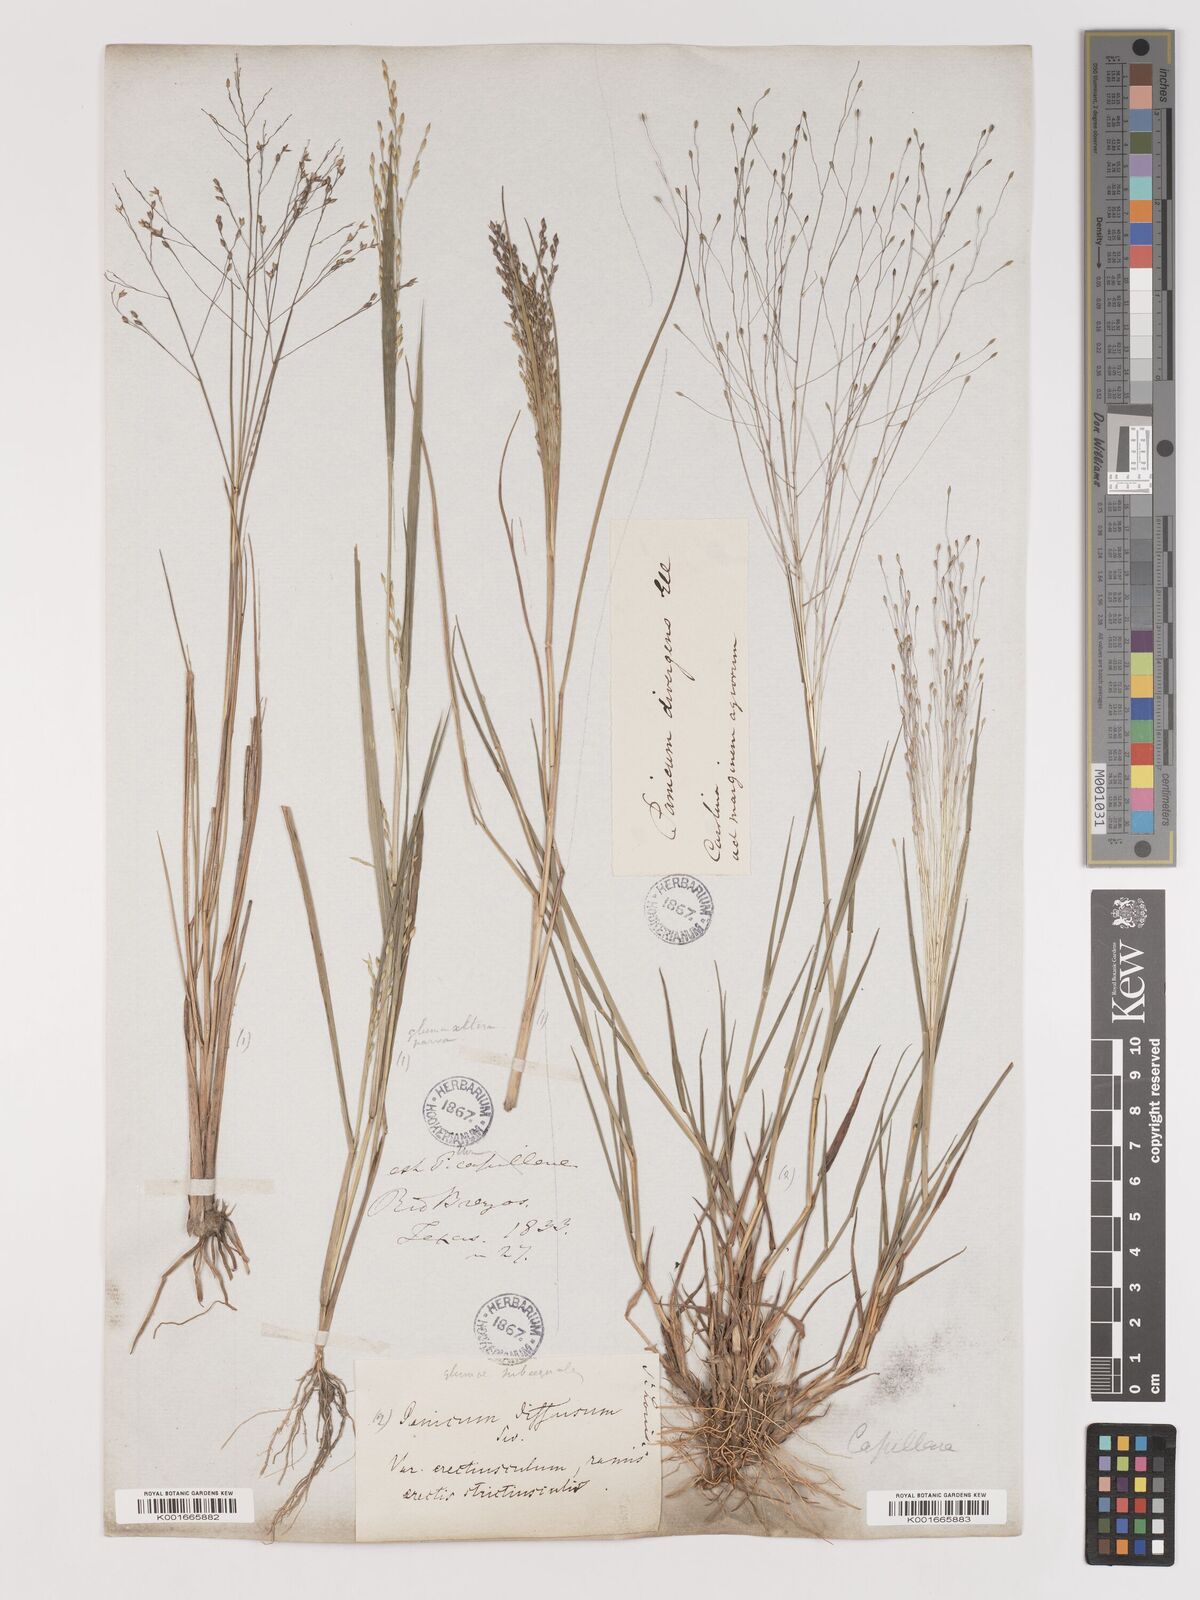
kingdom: Plantae
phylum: Tracheophyta
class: Liliopsida
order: Poales
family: Poaceae
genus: Digitaria
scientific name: Digitaria
